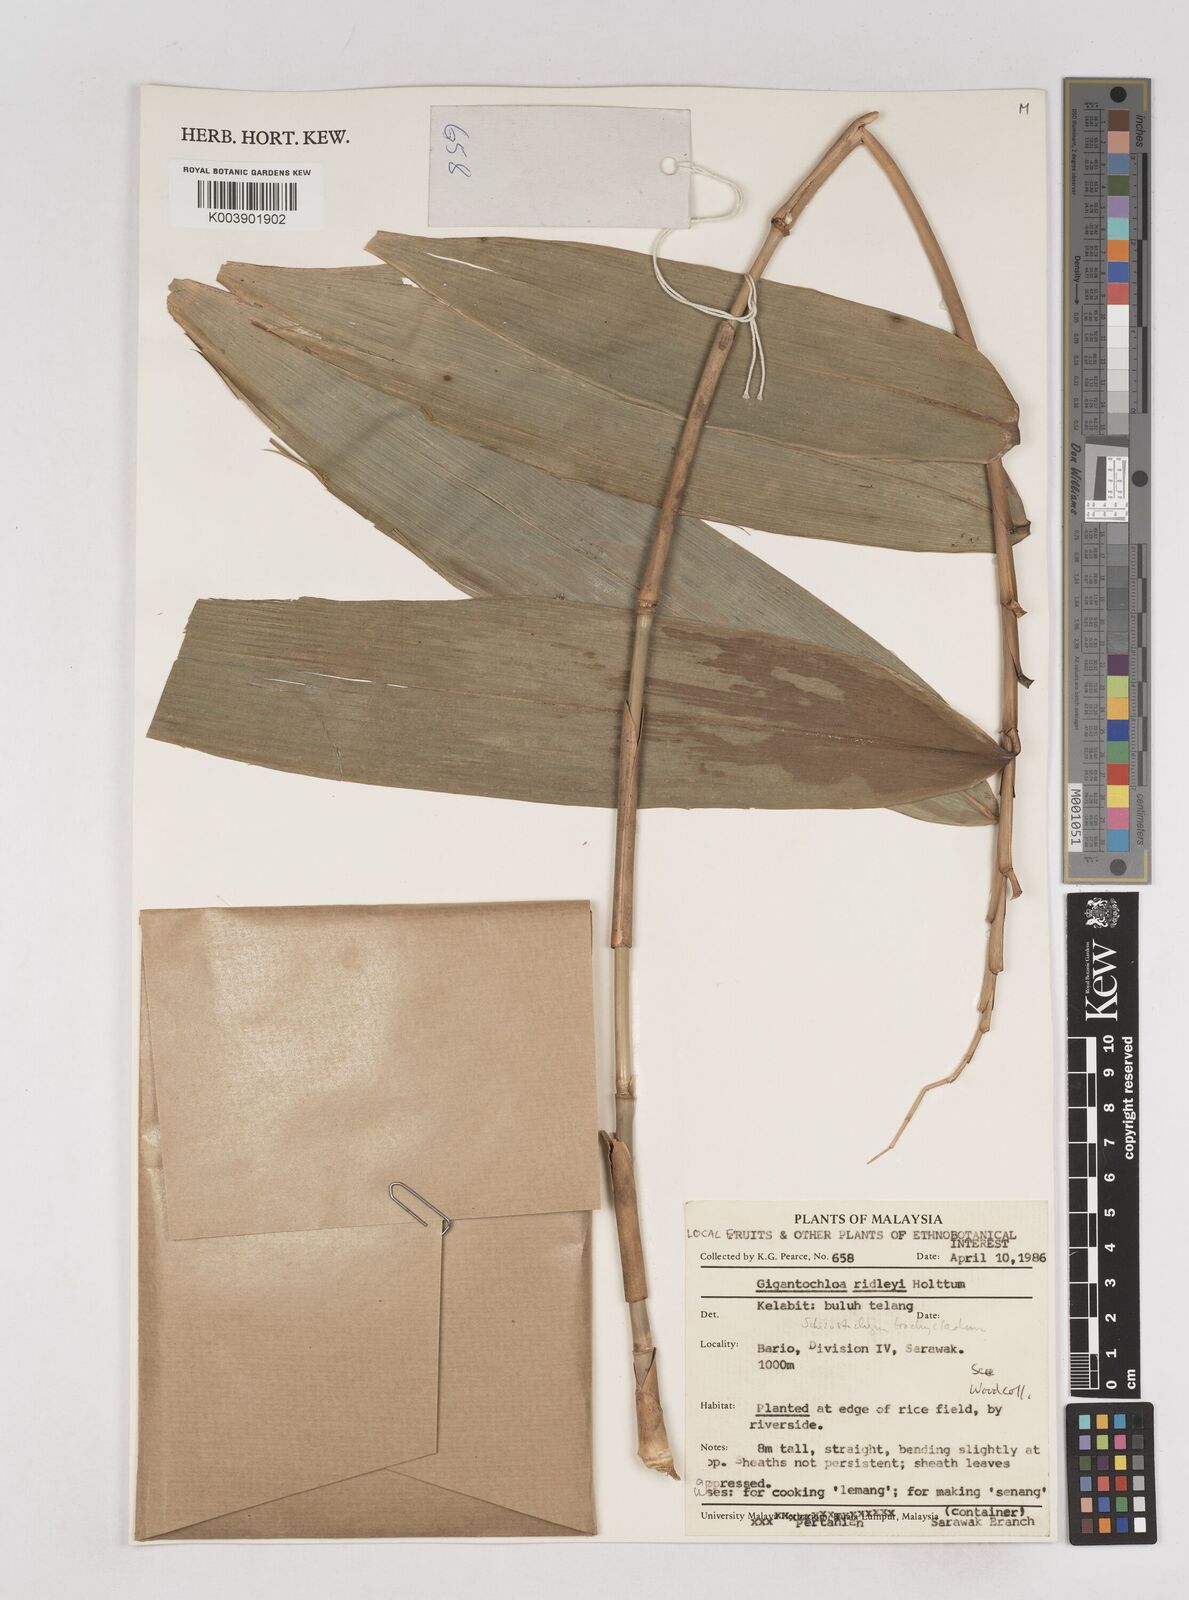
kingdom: Plantae
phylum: Tracheophyta
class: Liliopsida
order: Poales
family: Poaceae
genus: Schizostachyum
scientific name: Schizostachyum
